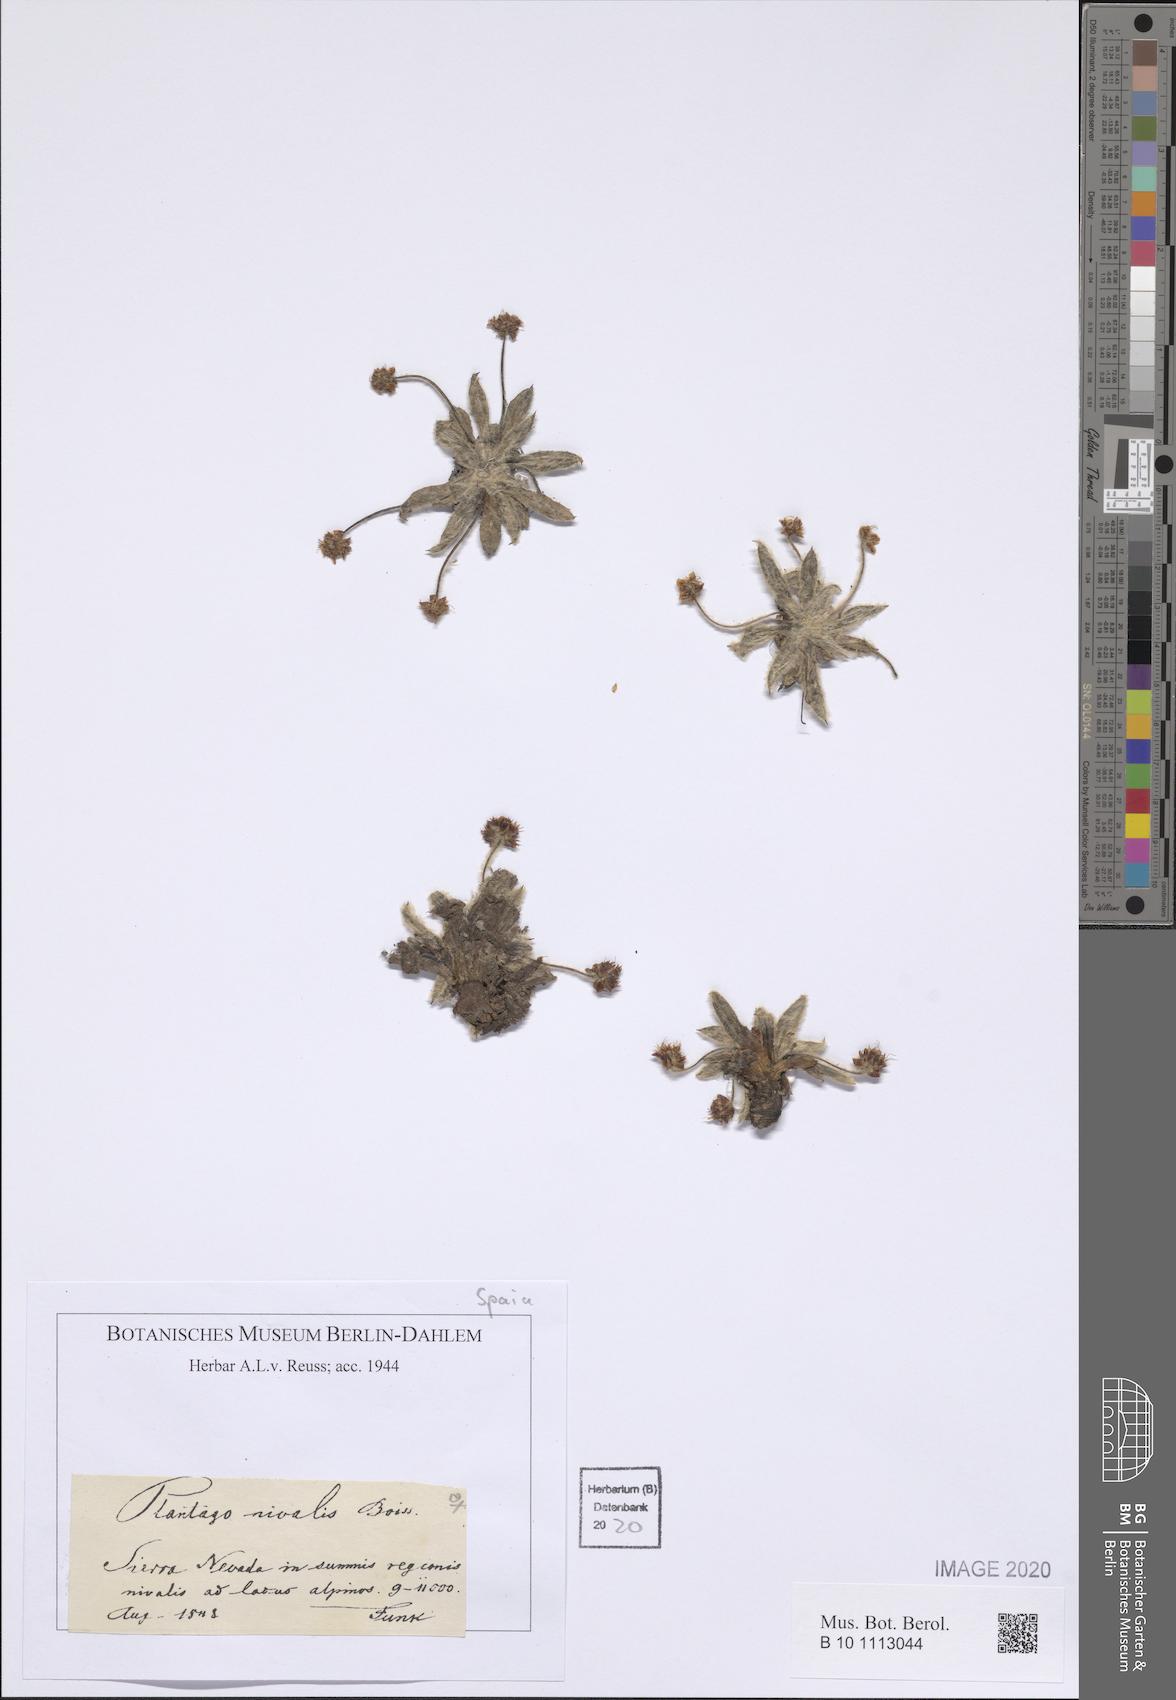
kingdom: Plantae
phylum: Tracheophyta
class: Magnoliopsida
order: Lamiales
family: Plantaginaceae
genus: Plantago
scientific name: Plantago nivalis
